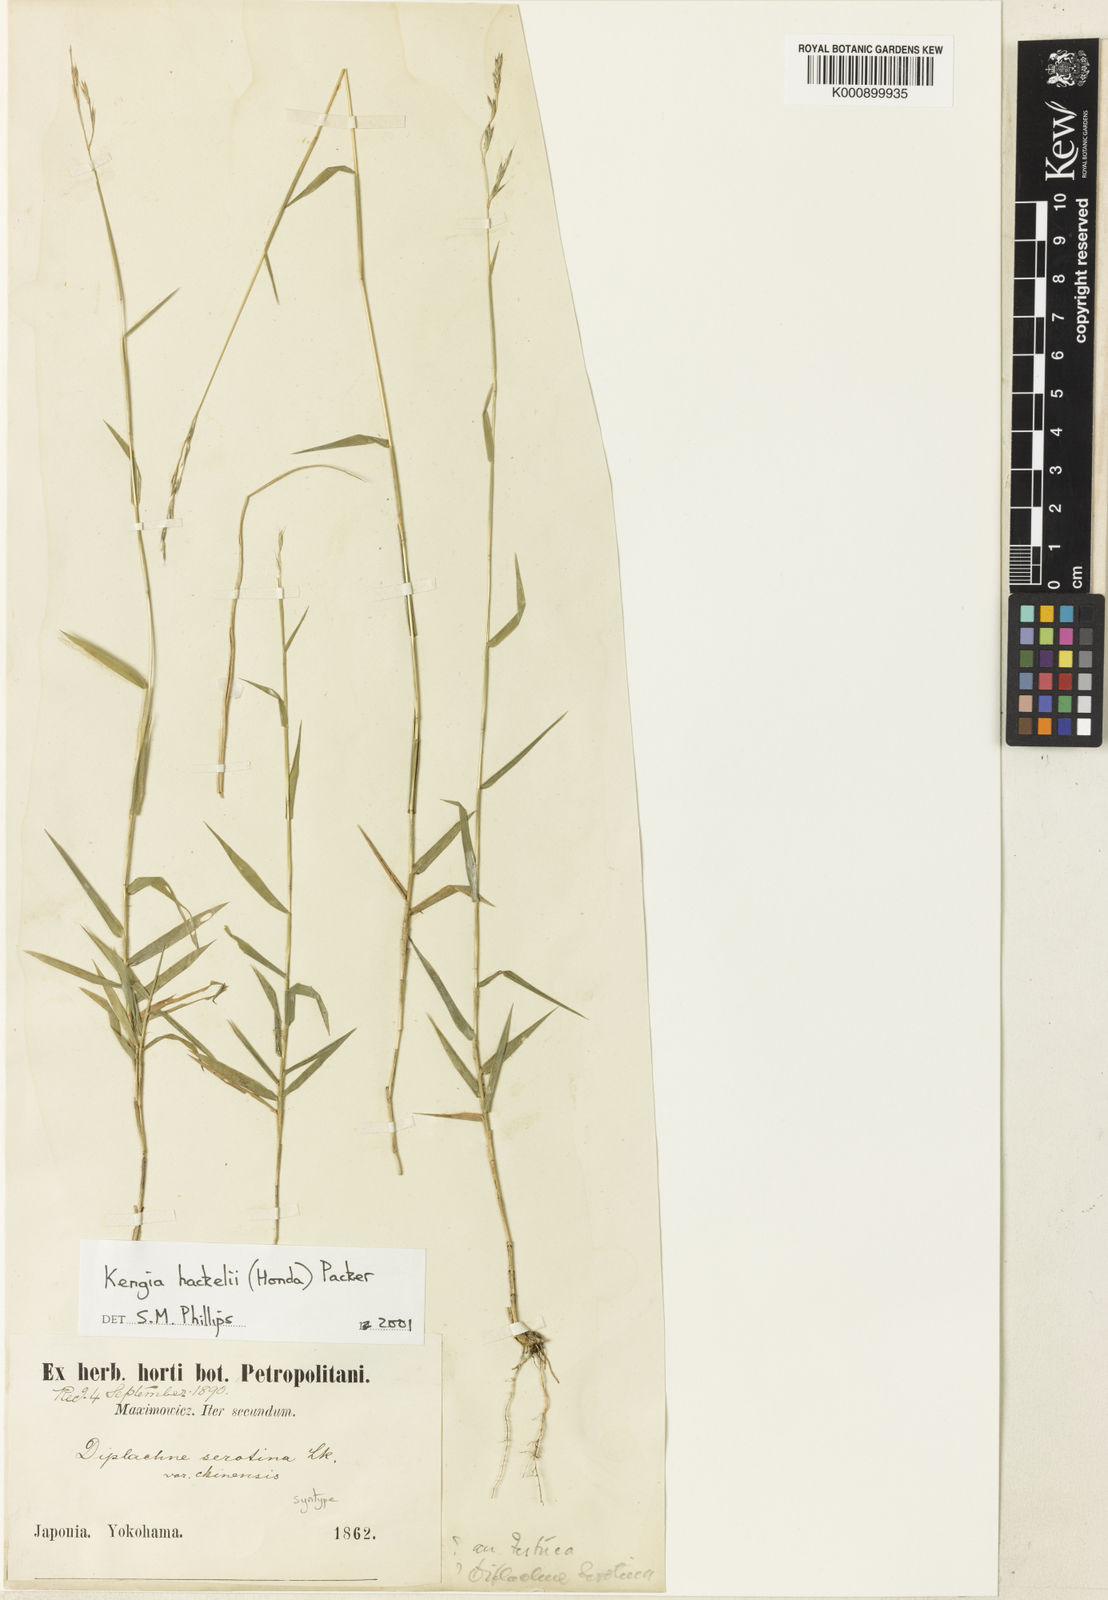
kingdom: Plantae
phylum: Tracheophyta
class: Liliopsida
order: Poales
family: Poaceae
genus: Cleistogenes
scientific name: Cleistogenes hackelii
